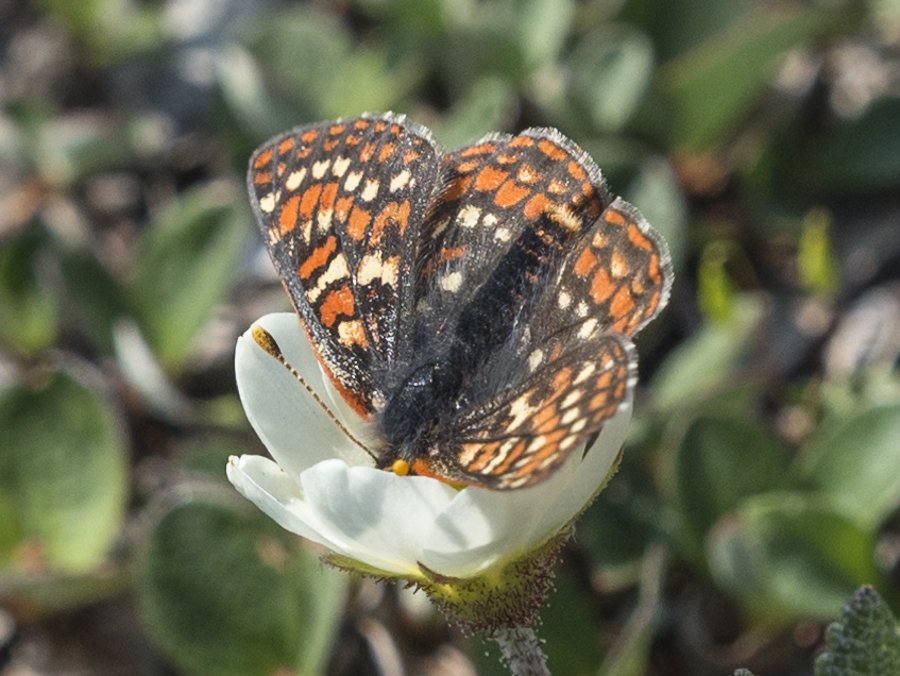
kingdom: Animalia
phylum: Arthropoda
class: Insecta
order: Lepidoptera
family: Nymphalidae
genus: Occidryas
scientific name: Occidryas anicia
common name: Anicia Checkerspot
